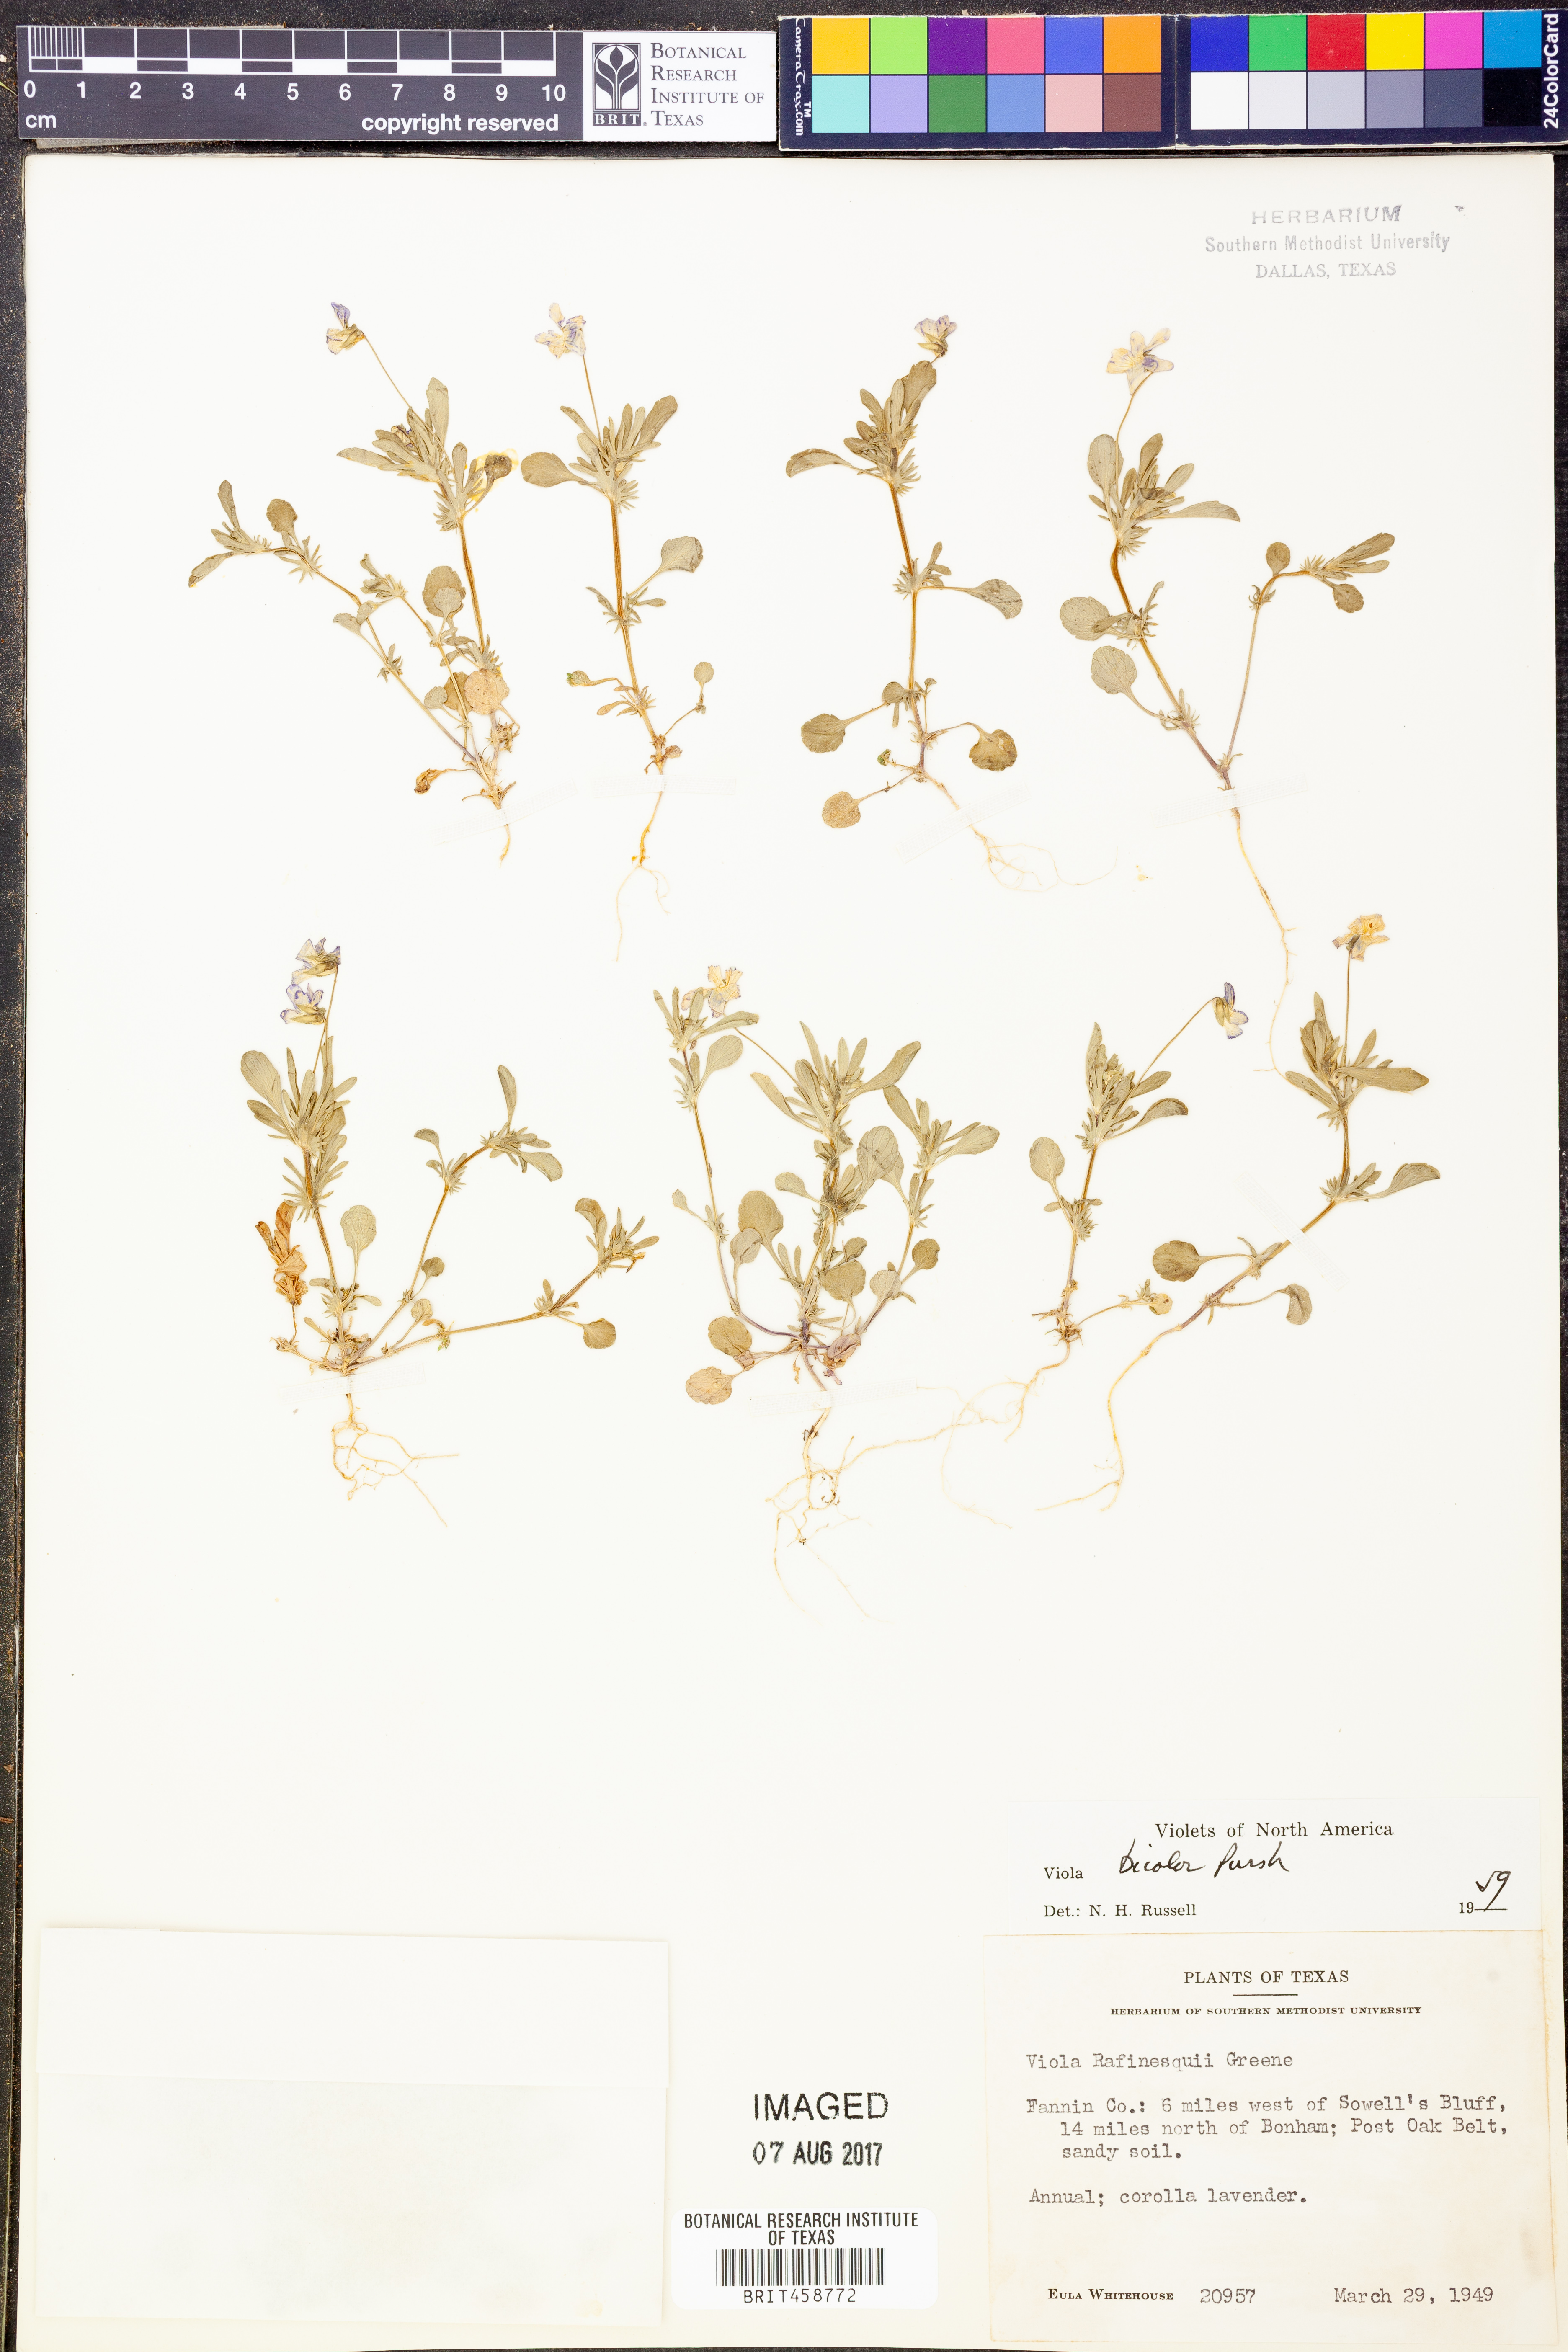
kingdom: Plantae
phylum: Tracheophyta
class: Magnoliopsida
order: Malpighiales
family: Violaceae
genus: Viola
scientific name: Viola rafinesquei
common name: American field pansy
